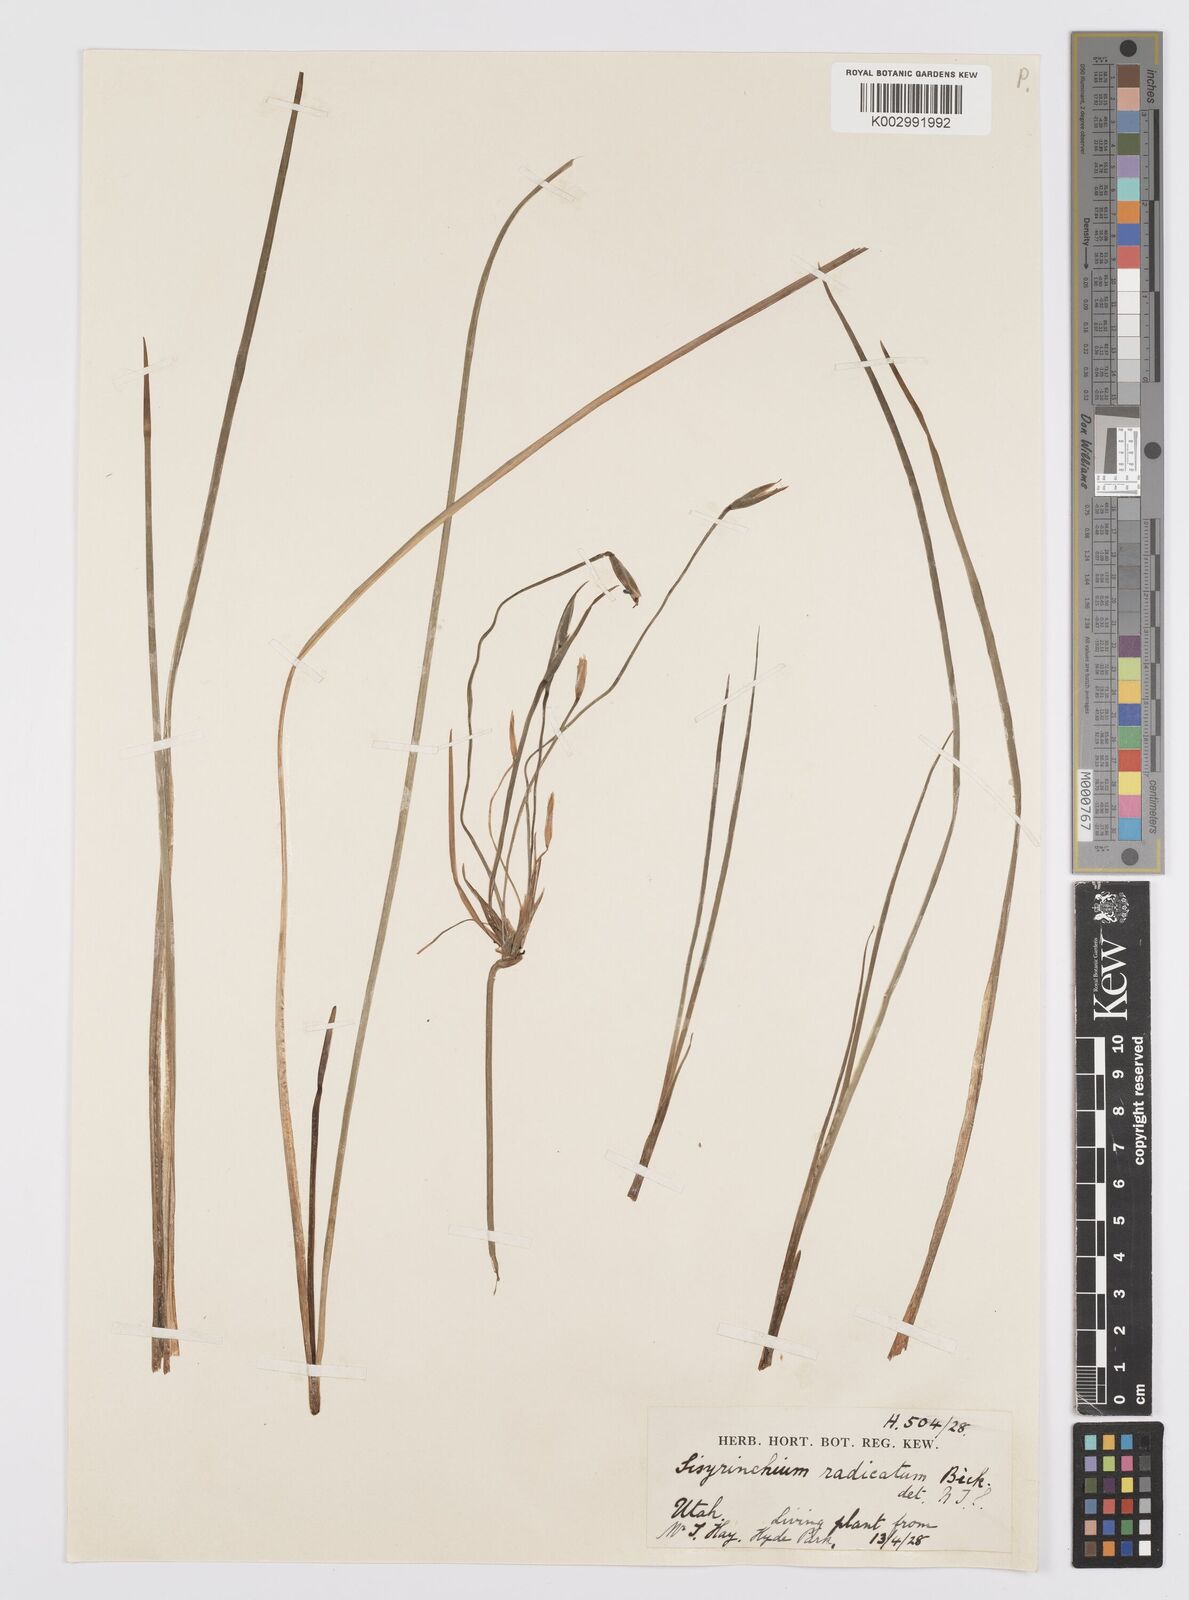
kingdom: Plantae
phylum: Tracheophyta
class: Liliopsida
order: Asparagales
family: Iridaceae
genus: Sisyrinchium
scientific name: Sisyrinchium radicatum
